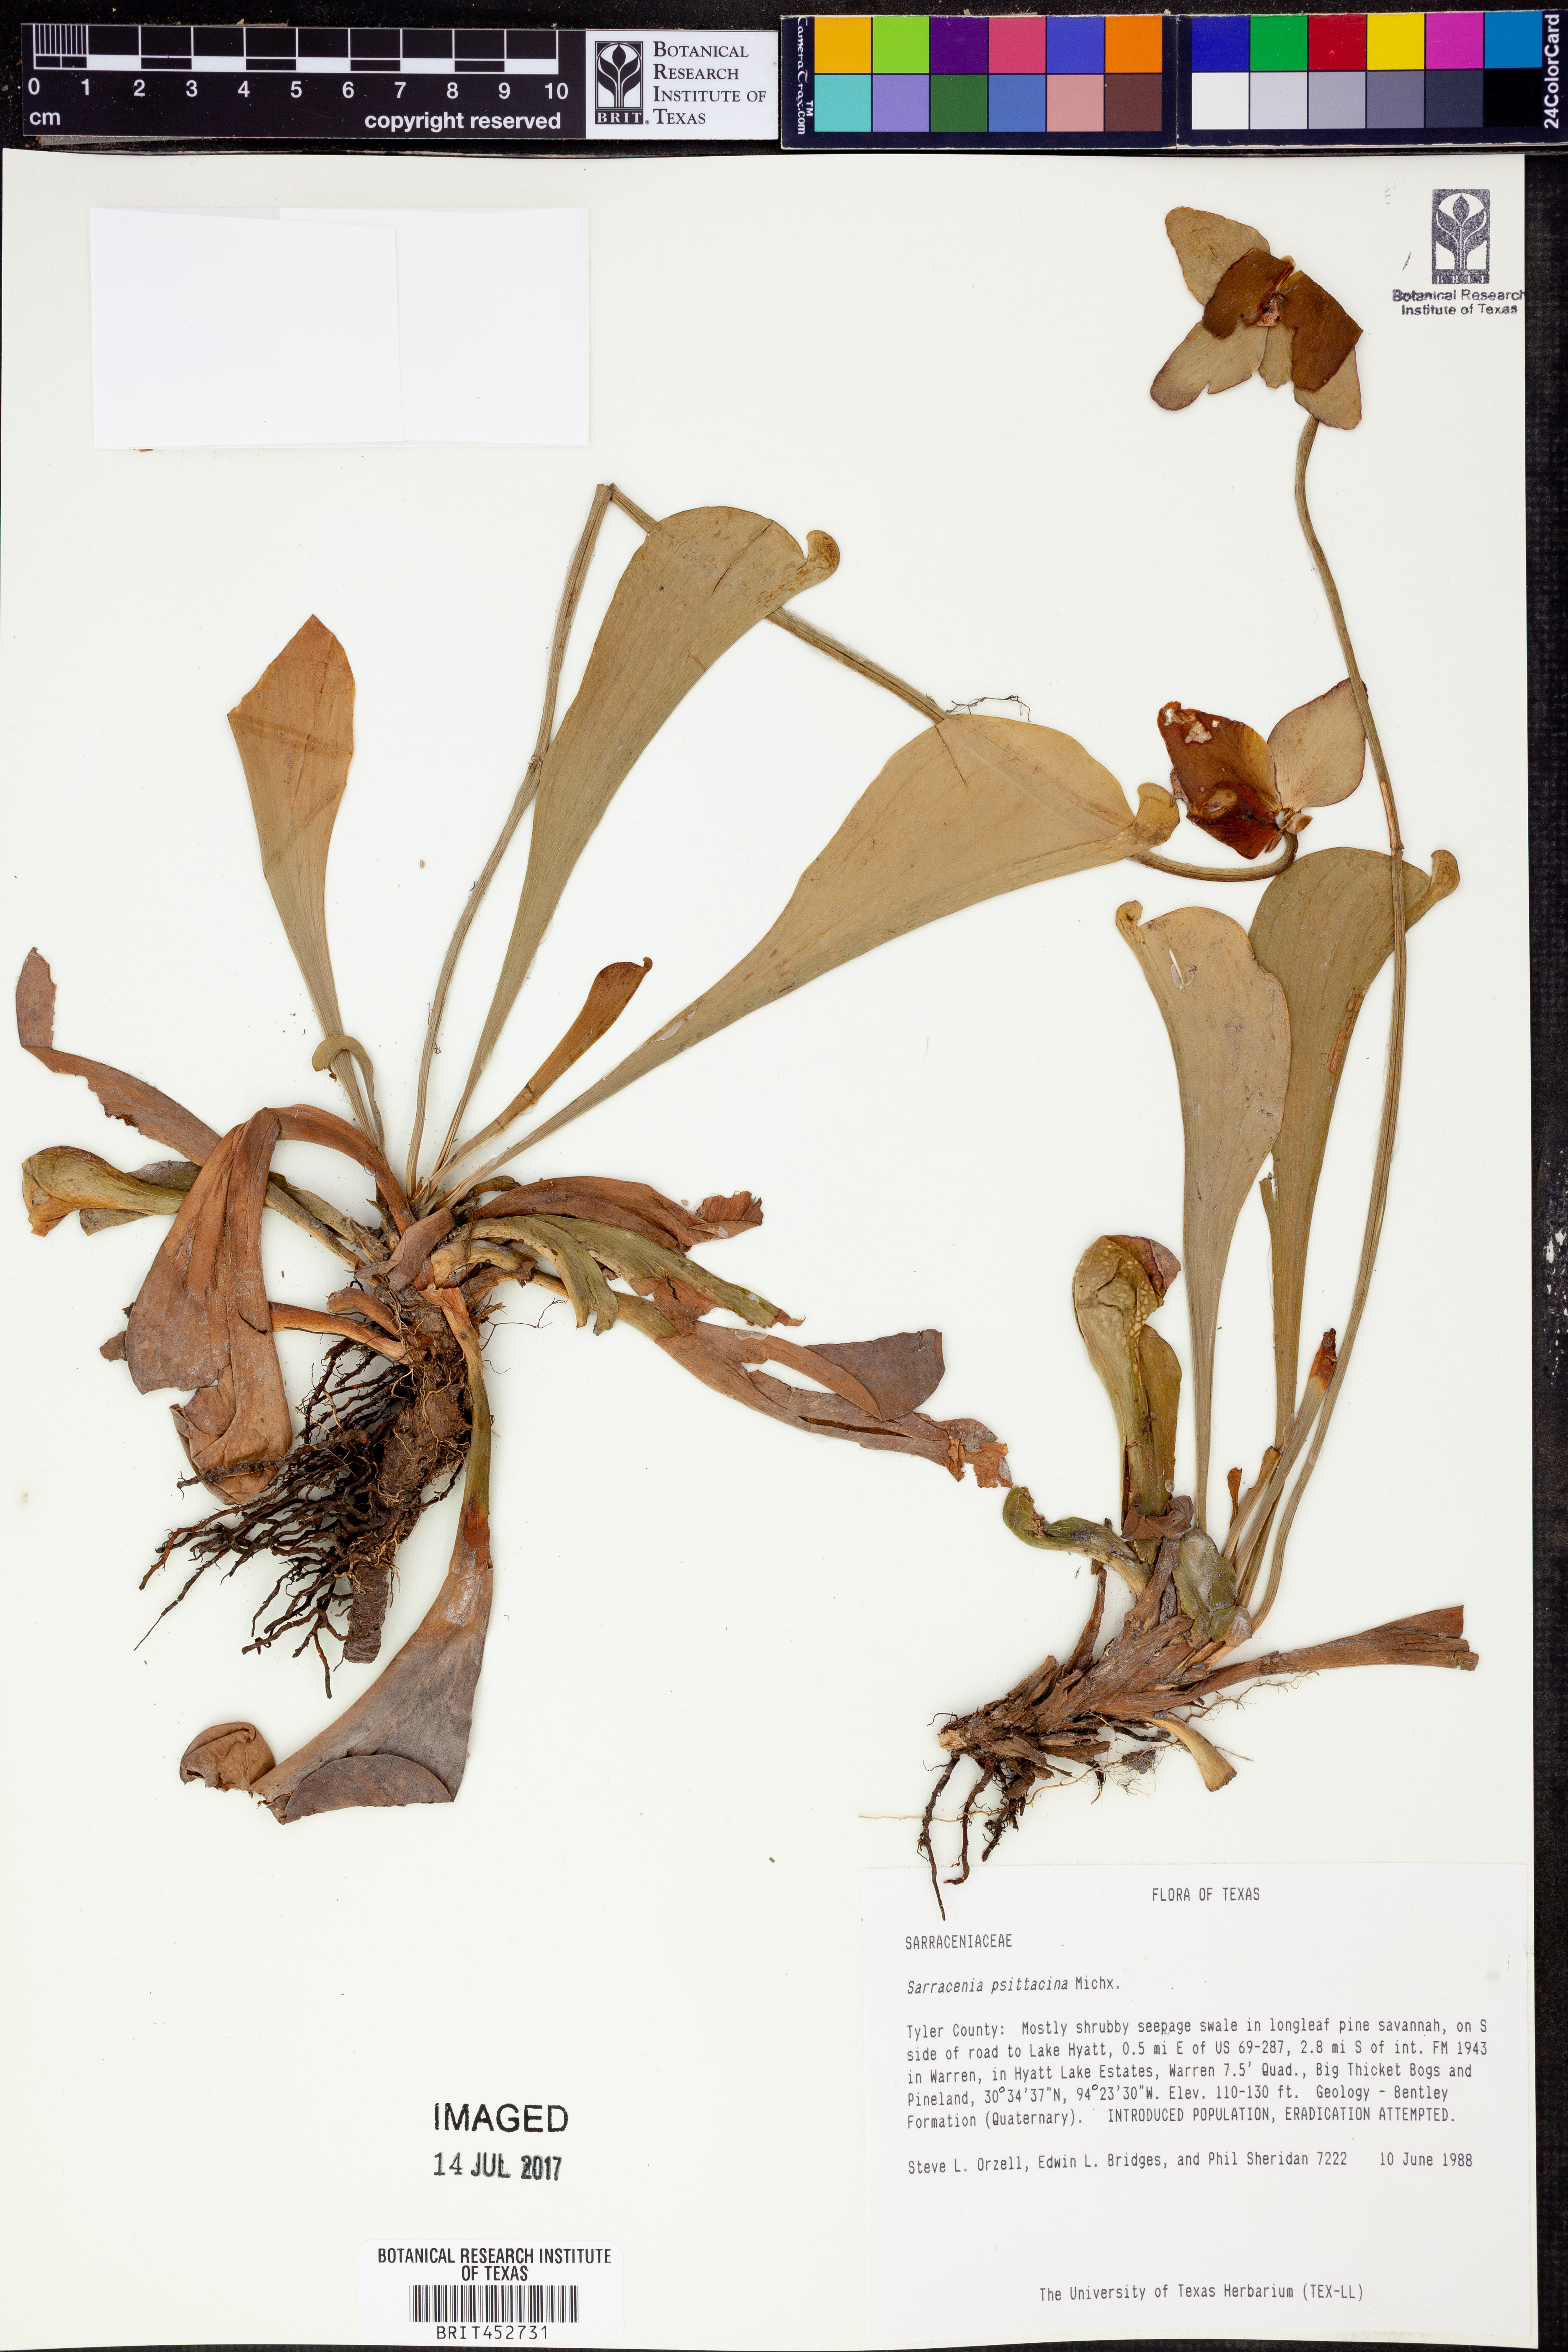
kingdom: Plantae
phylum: Tracheophyta
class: Magnoliopsida
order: Ericales
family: Sarraceniaceae
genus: Sarracenia
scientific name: Sarracenia psittacina
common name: Parrot pitcherplant
